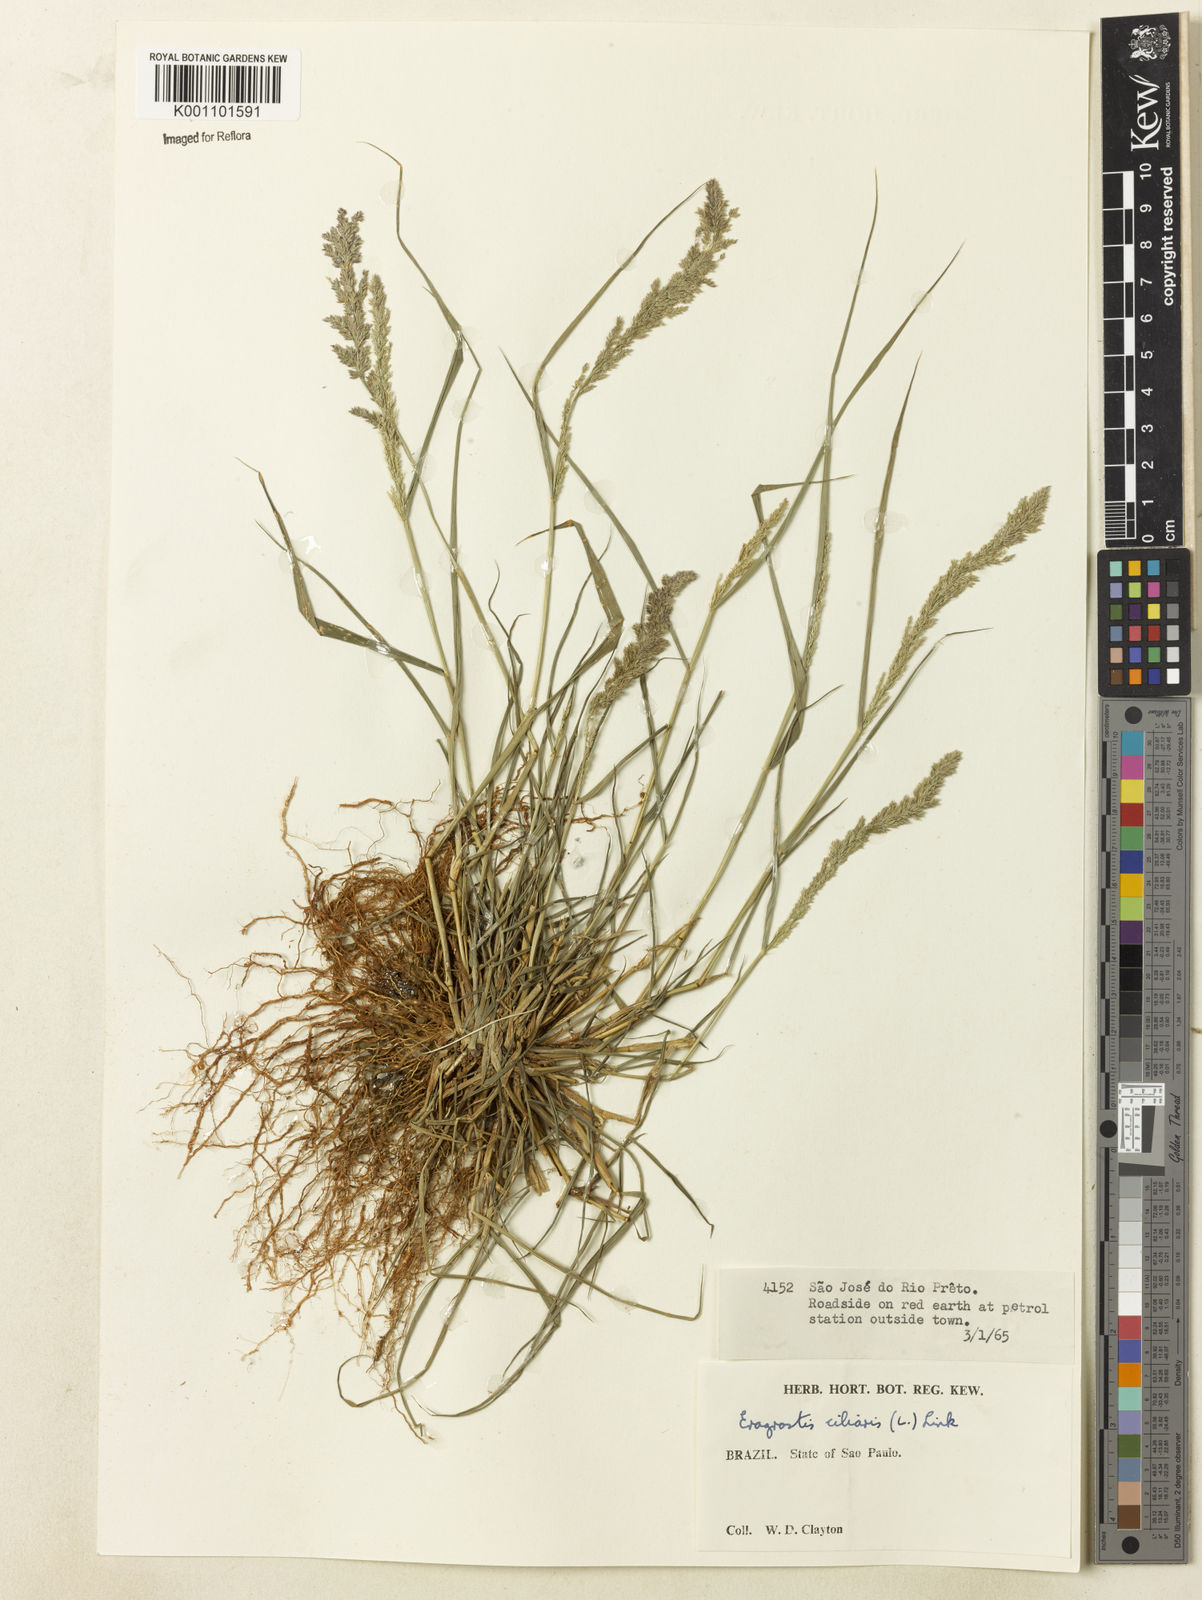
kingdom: Plantae
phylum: Tracheophyta
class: Liliopsida
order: Poales
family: Poaceae
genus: Eragrostis
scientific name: Eragrostis ciliaris
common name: Gophertail lovegrass
